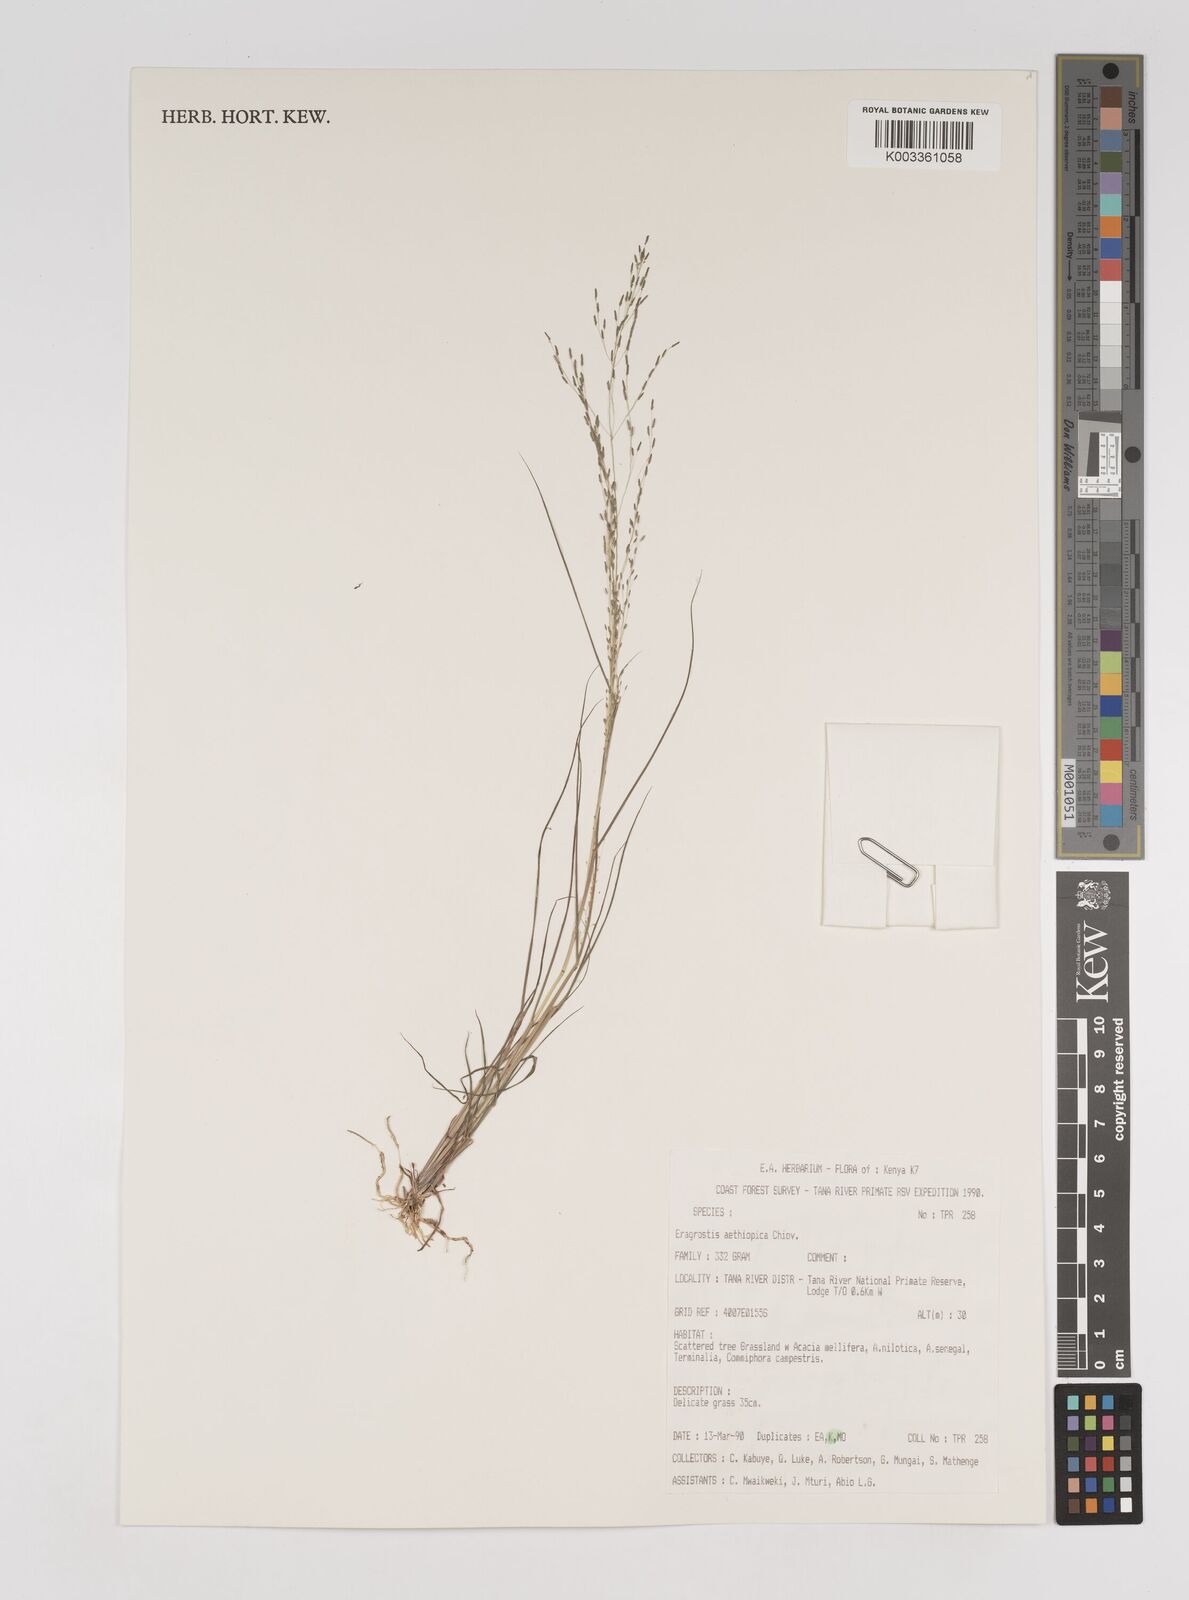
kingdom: Plantae
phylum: Tracheophyta
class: Liliopsida
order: Poales
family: Poaceae
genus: Eragrostis
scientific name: Eragrostis aethiopica
